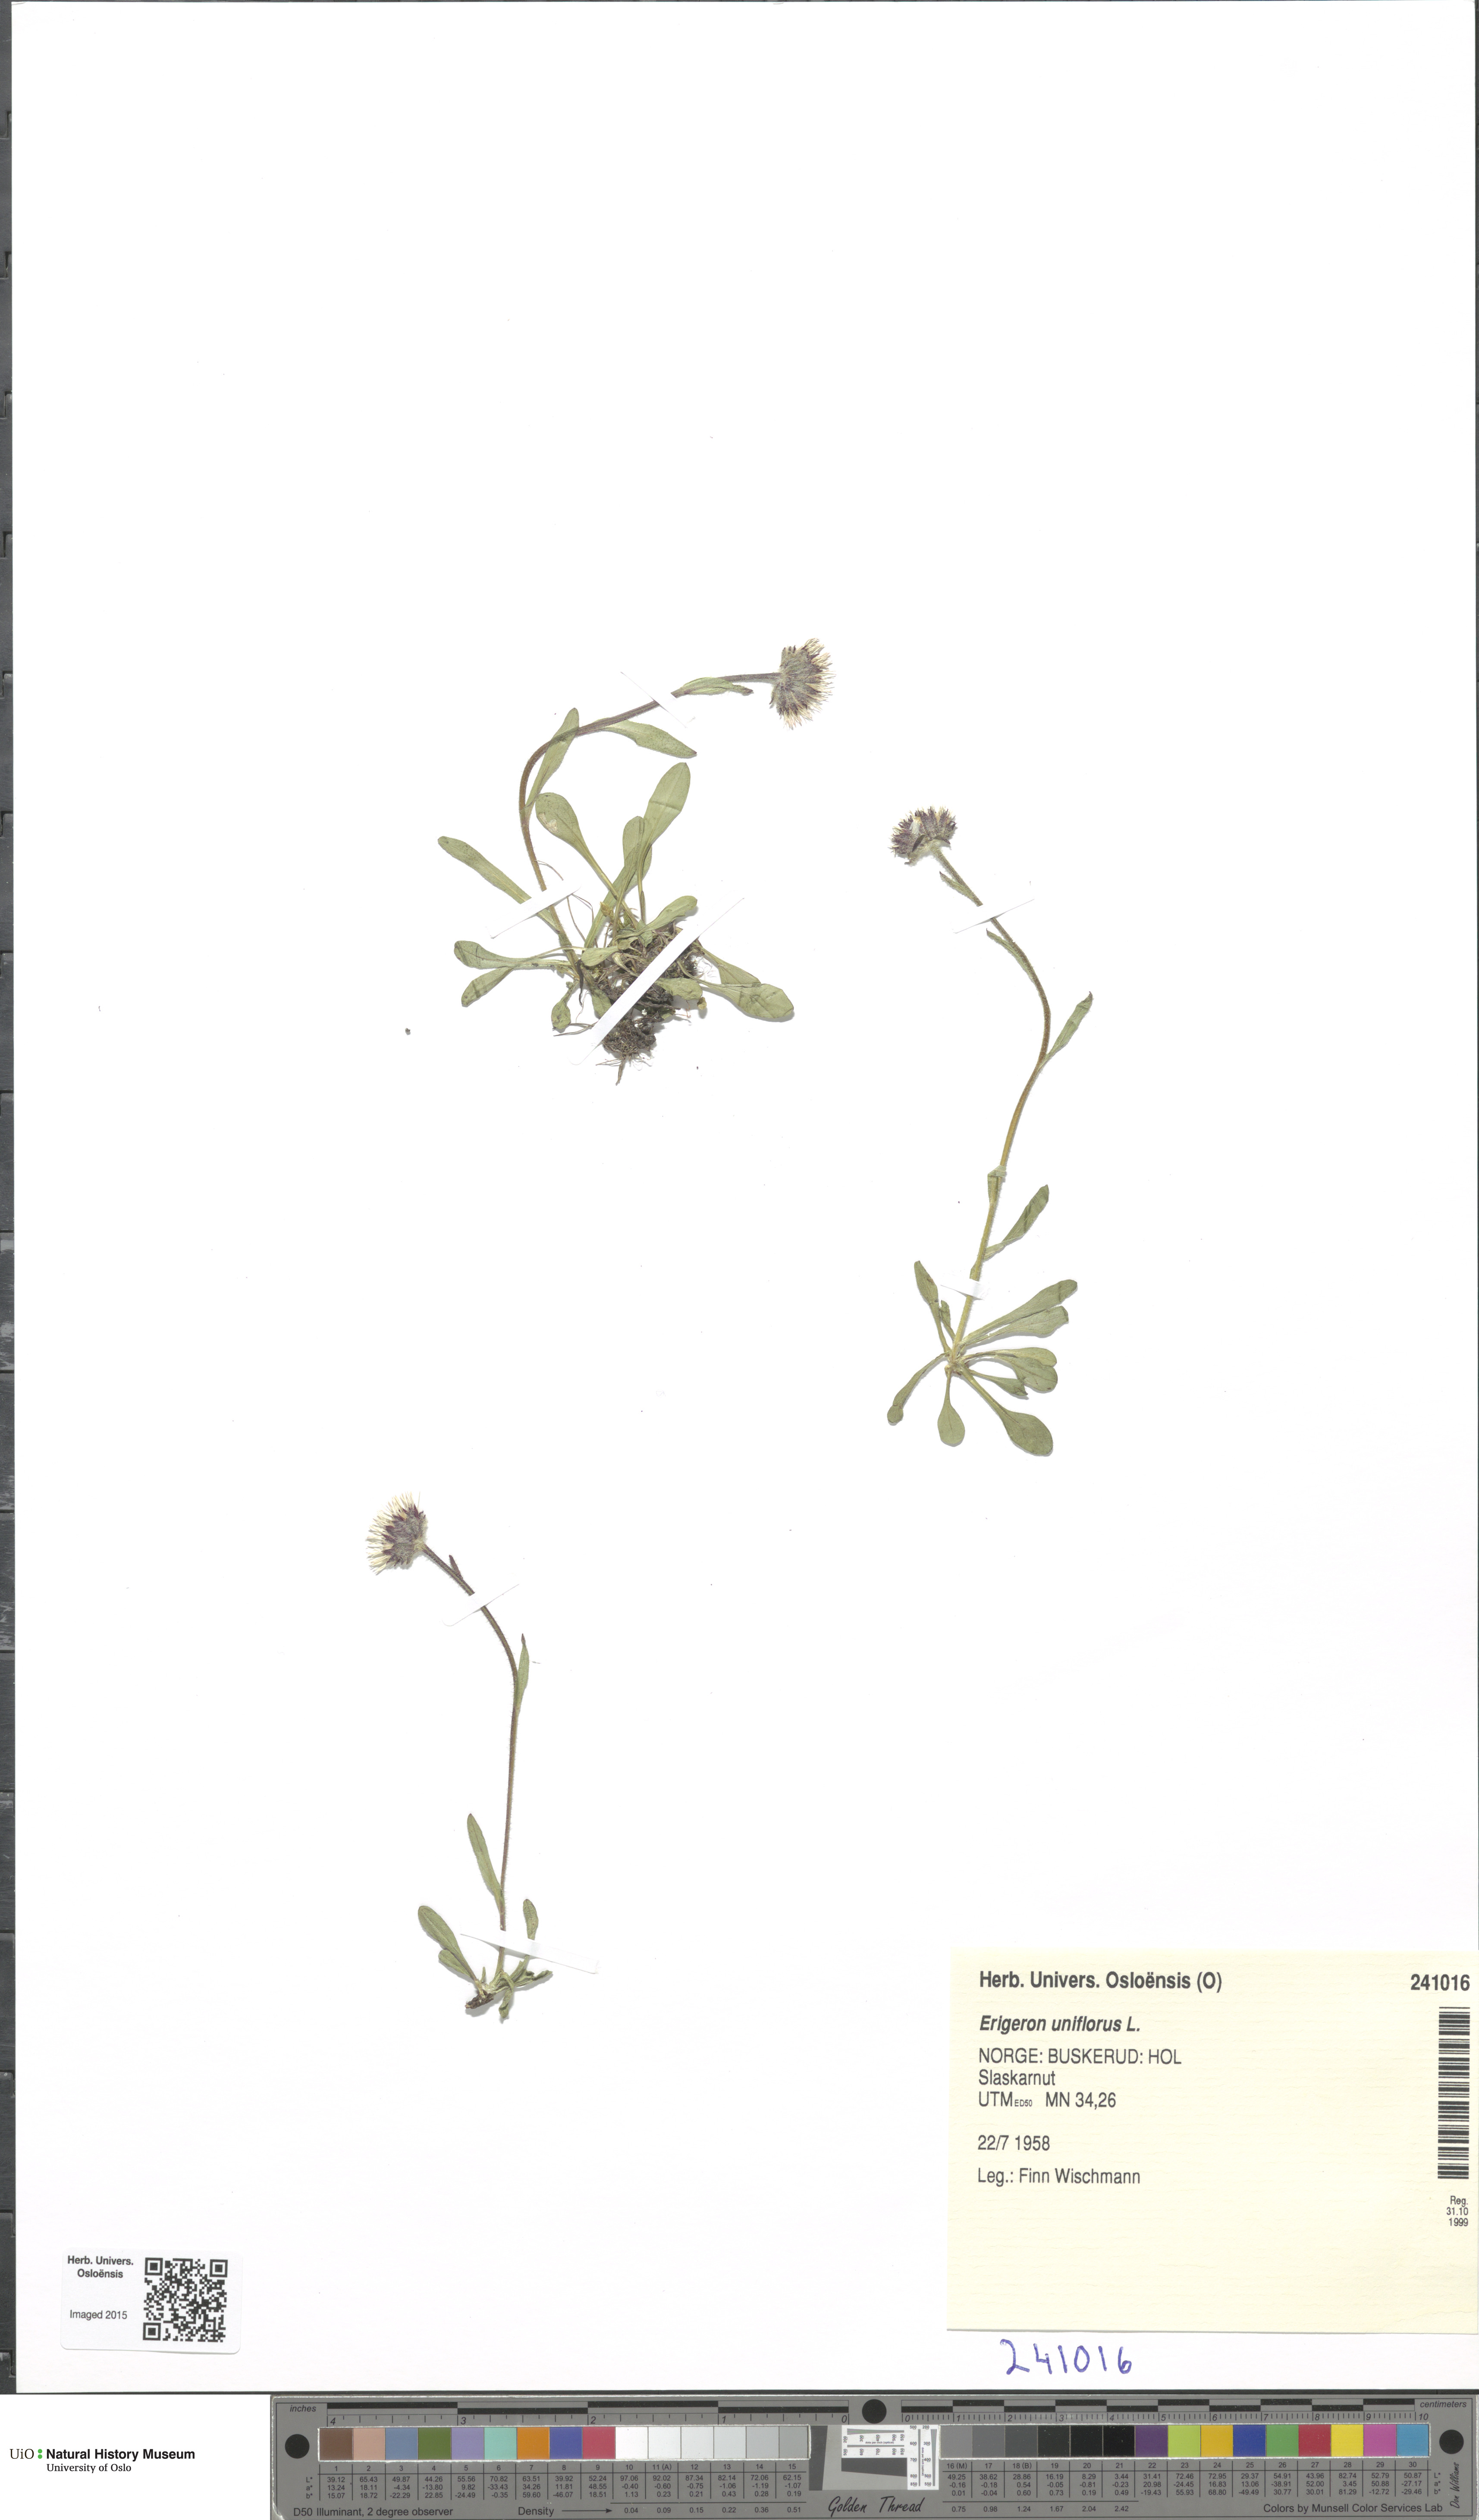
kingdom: Plantae
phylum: Tracheophyta
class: Magnoliopsida
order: Asterales
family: Asteraceae
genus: Erigeron
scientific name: Erigeron uniflorus
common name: Northern daisy
